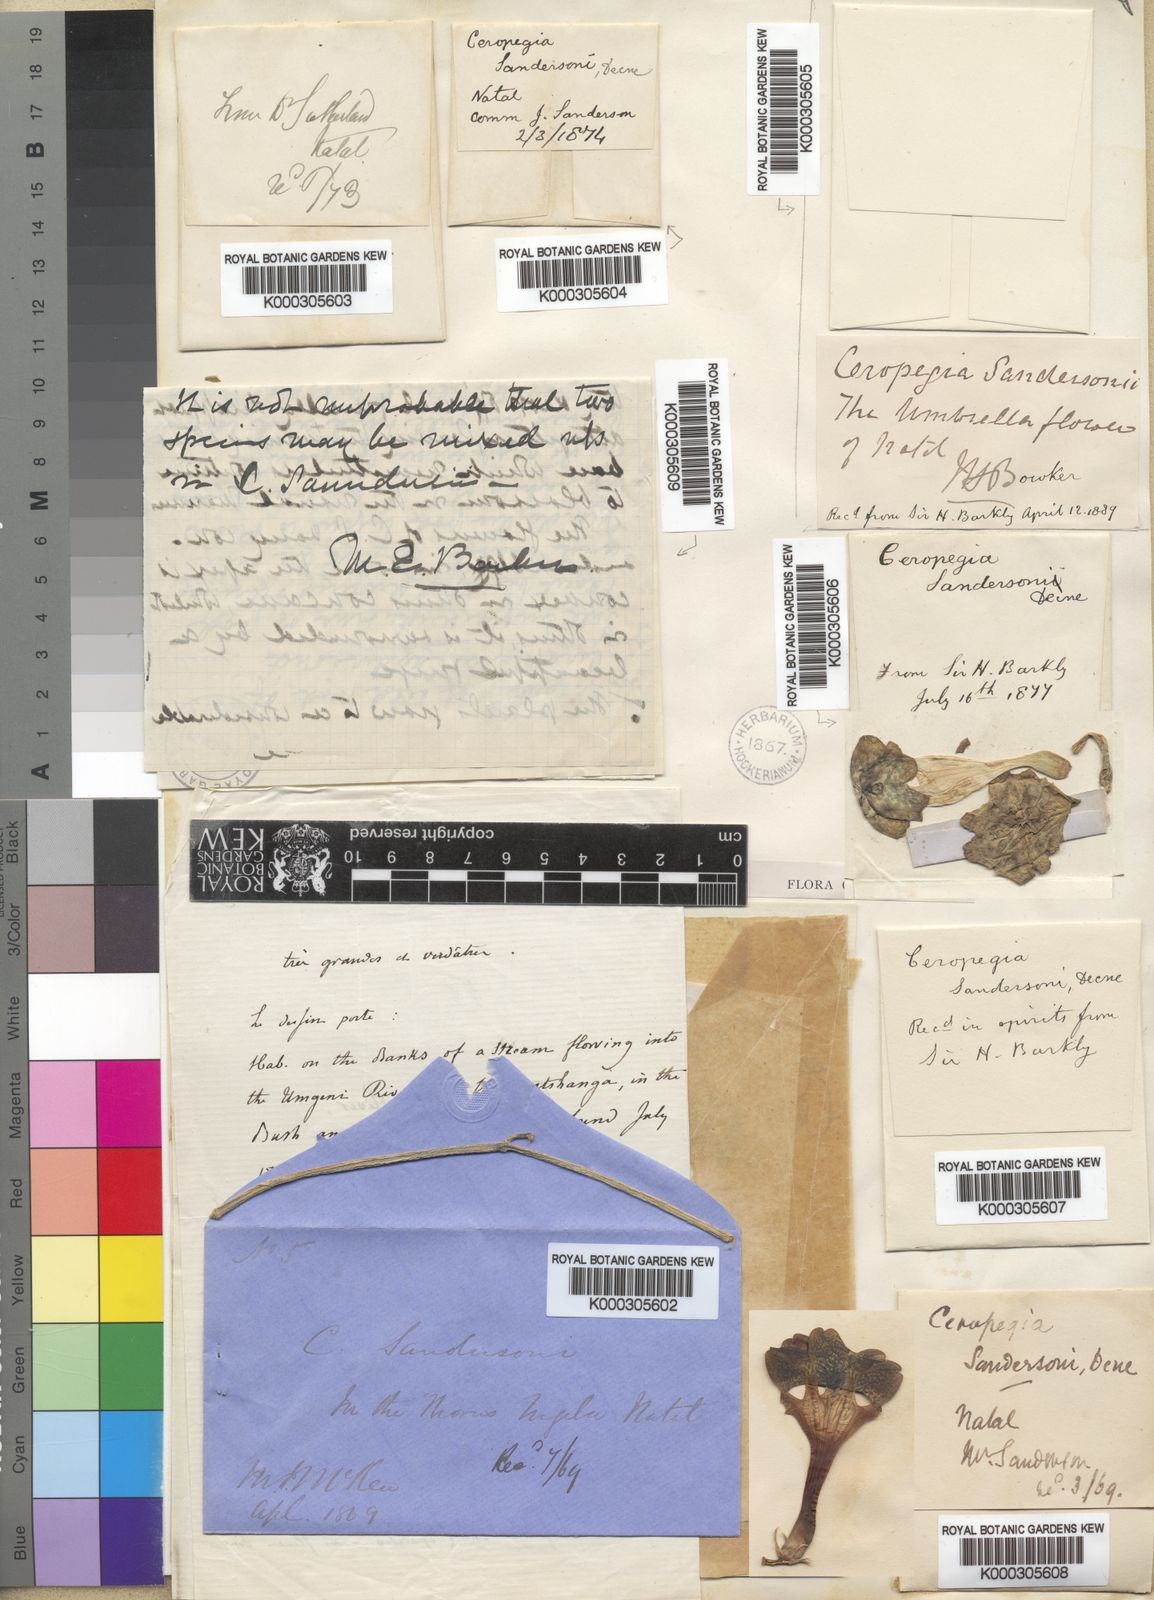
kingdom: Plantae
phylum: Tracheophyta
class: Magnoliopsida
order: Gentianales
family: Apocynaceae
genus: Ceropegia
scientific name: Ceropegia sandersonii
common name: Fountain-flower
